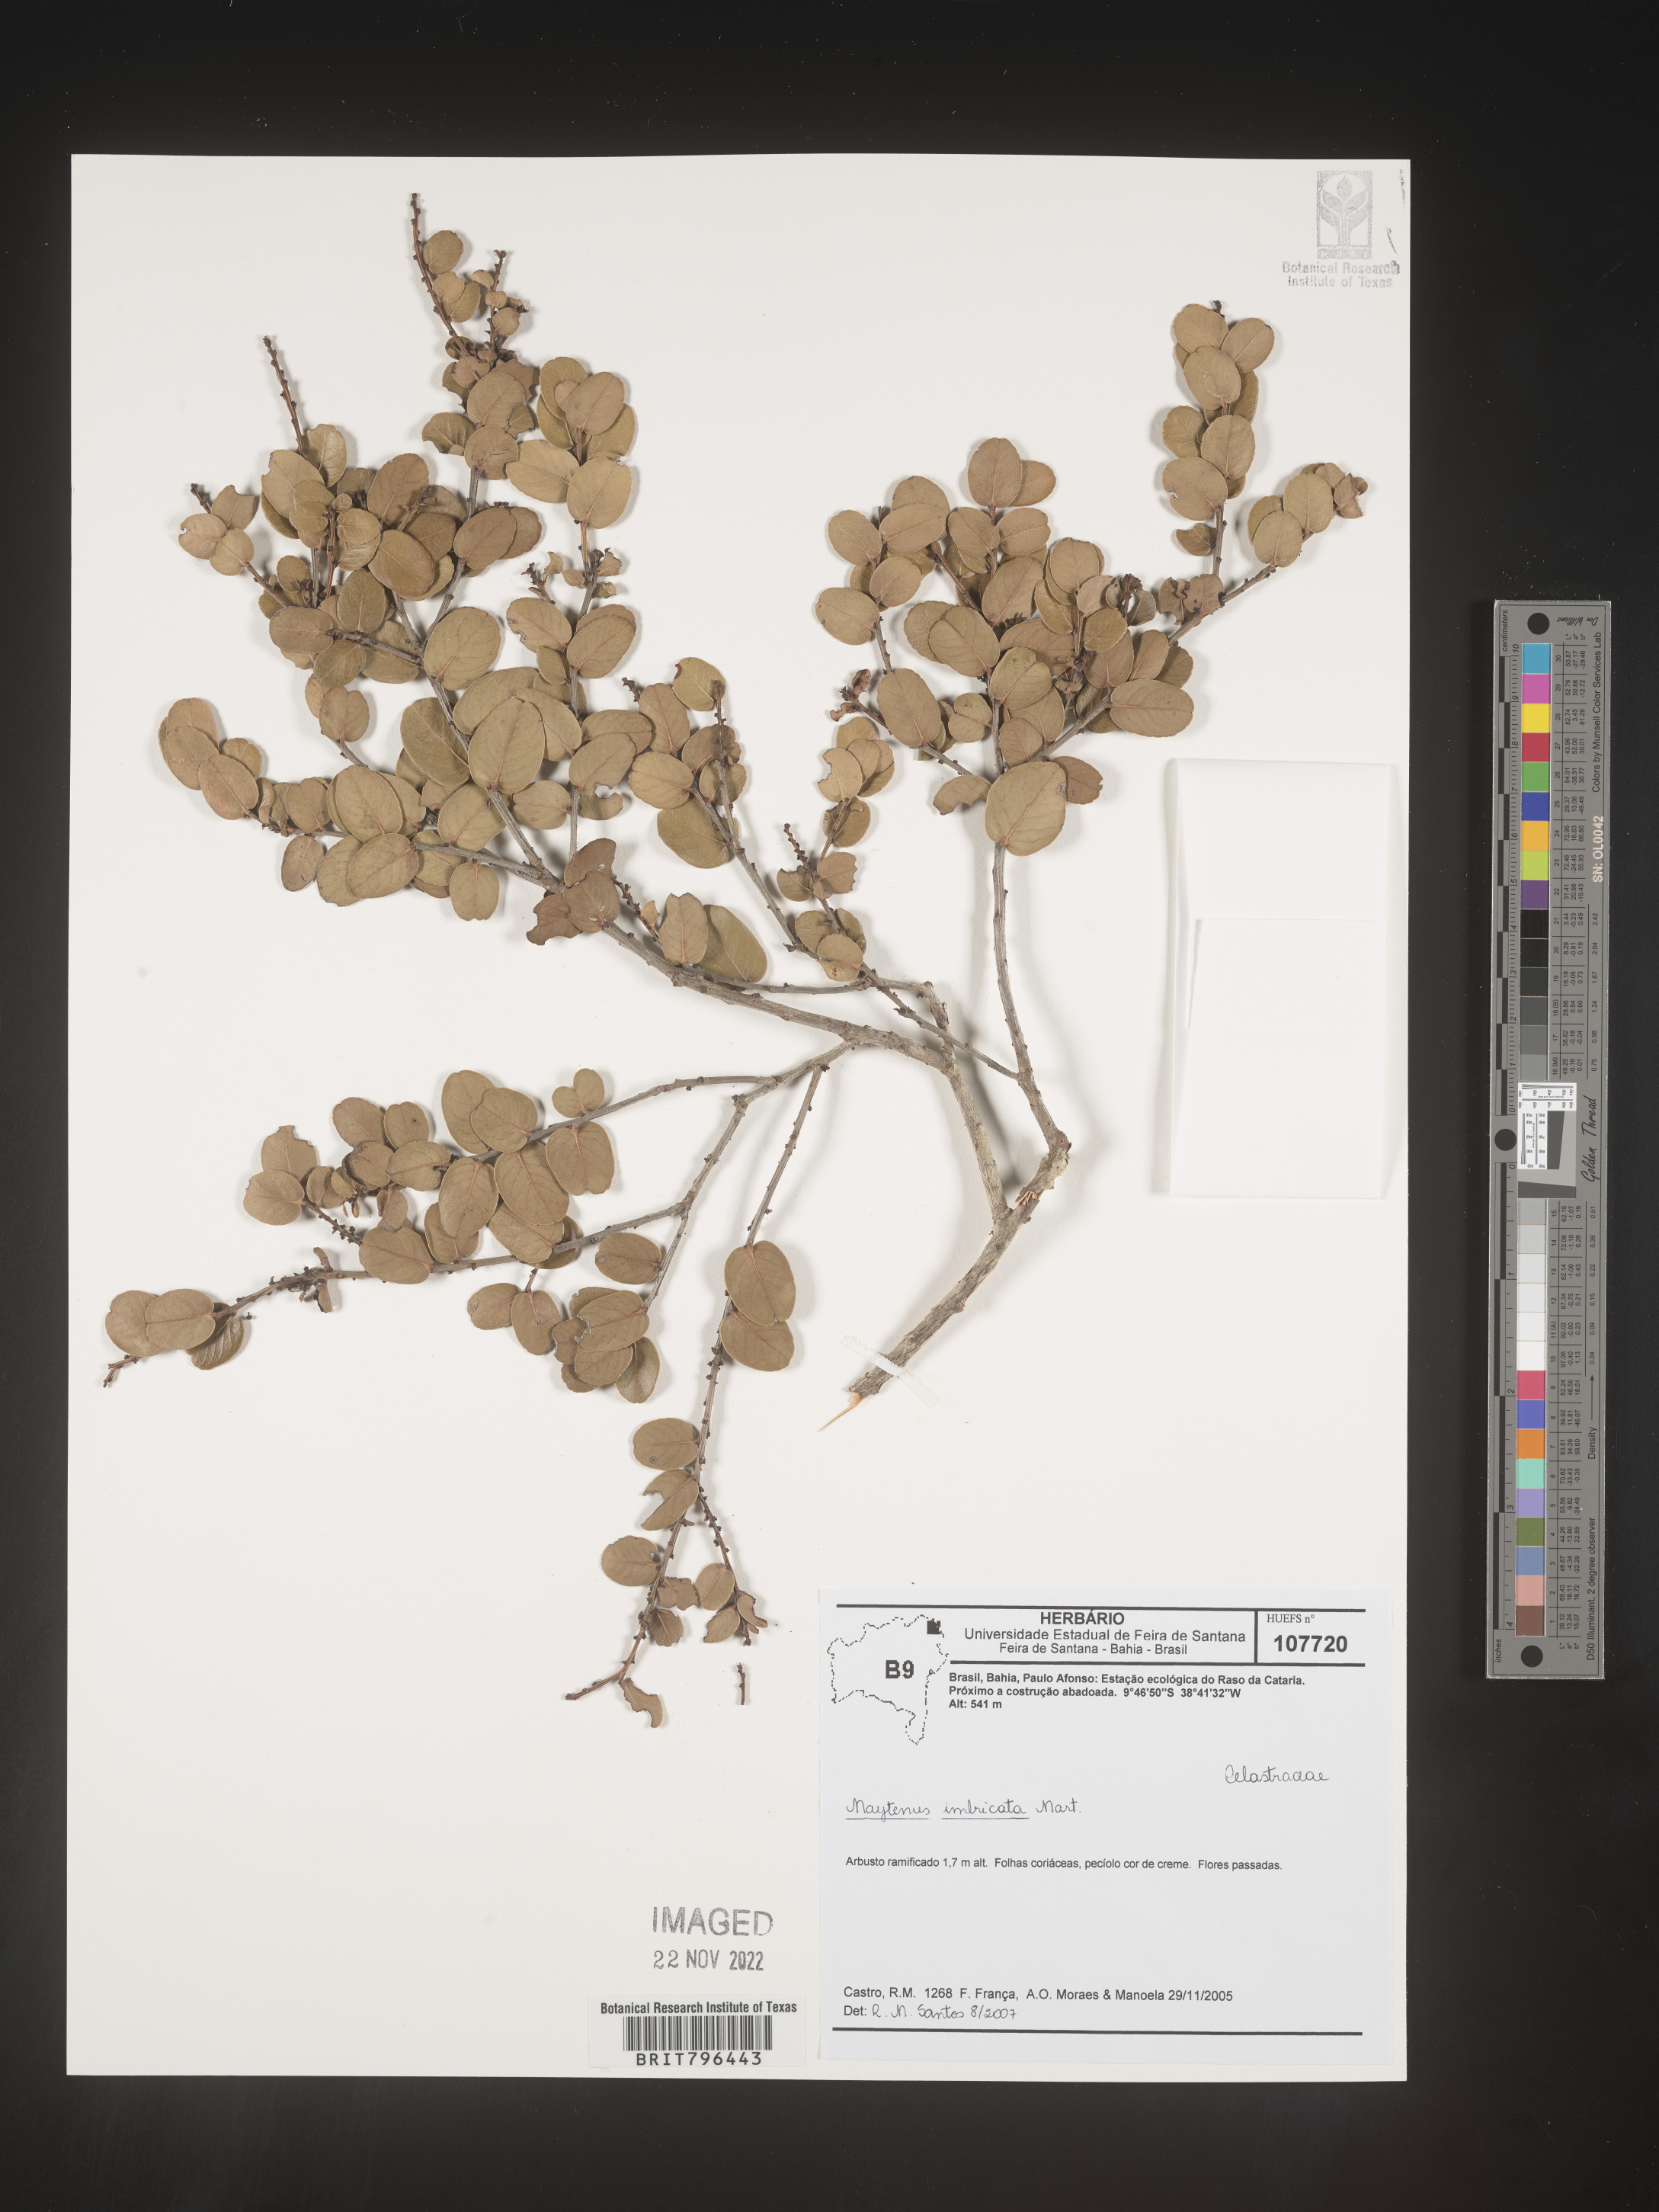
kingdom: Plantae
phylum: Tracheophyta
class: Magnoliopsida
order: Celastrales
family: Celastraceae
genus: Maytenus
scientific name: Maytenus
